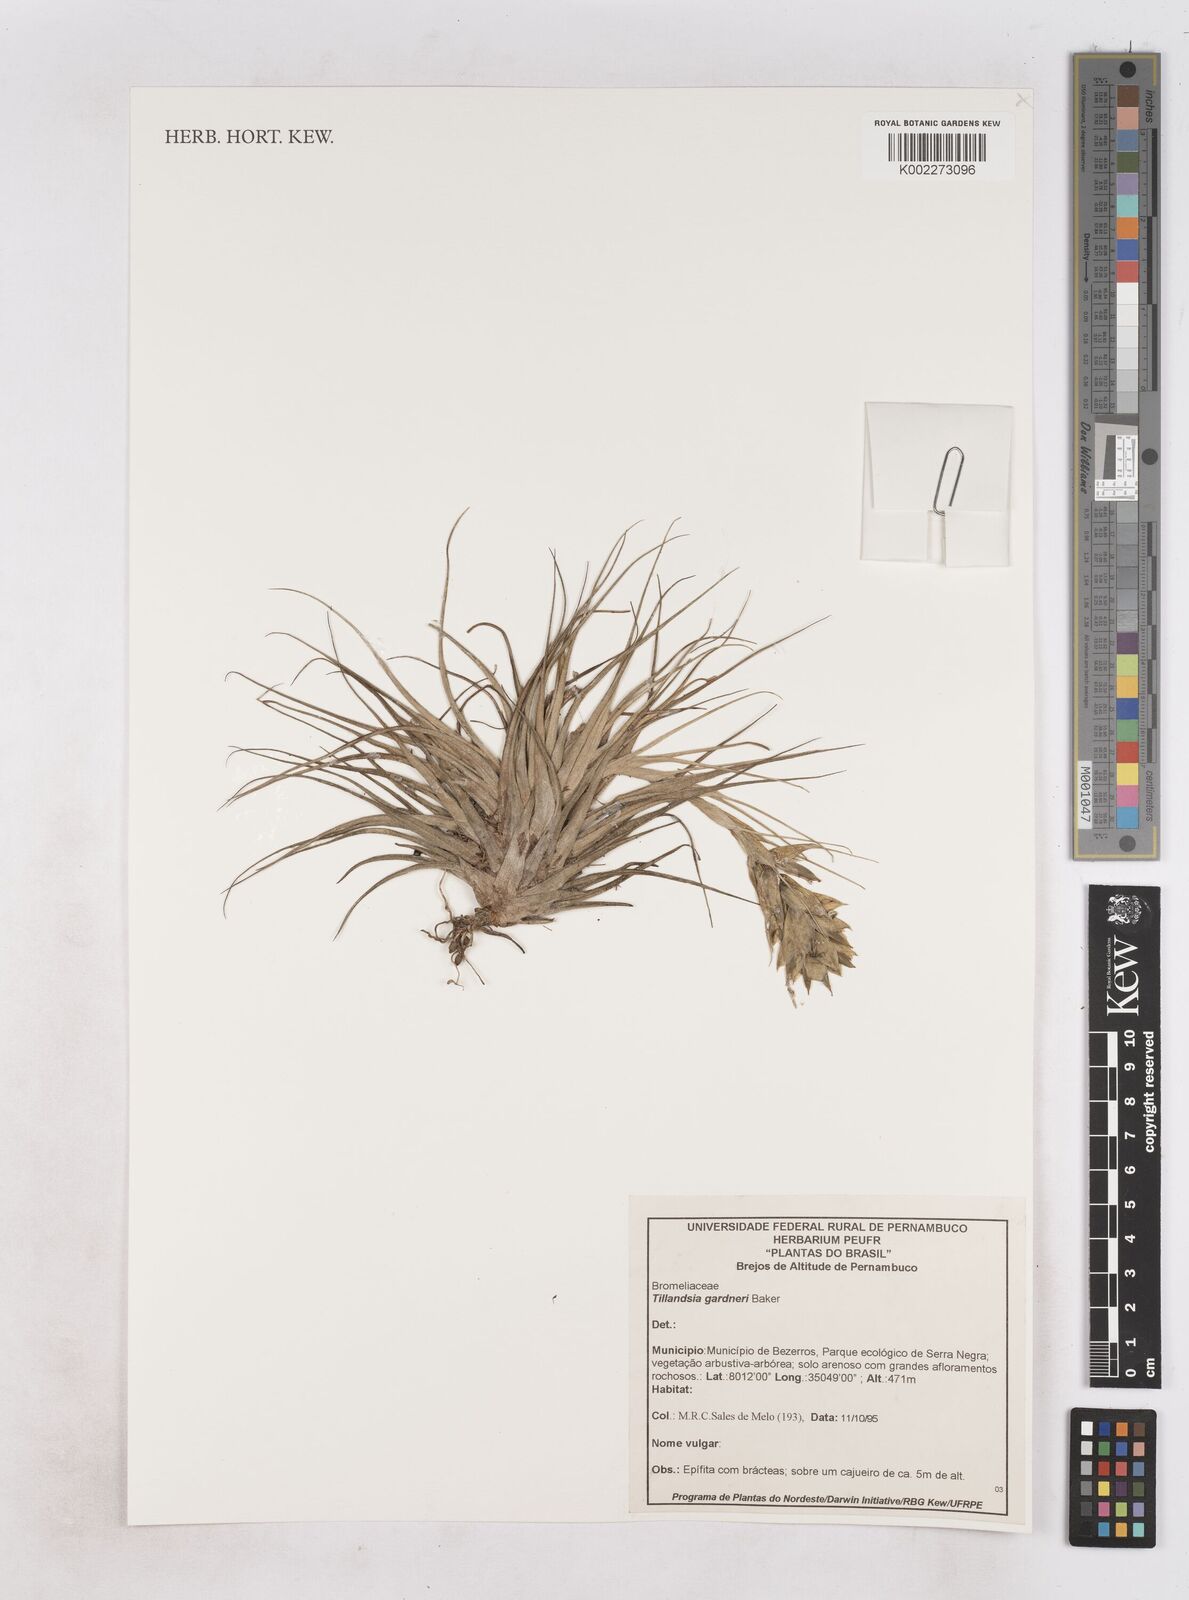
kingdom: Plantae
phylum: Tracheophyta
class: Liliopsida
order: Poales
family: Bromeliaceae
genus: Tillandsia
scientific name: Tillandsia gardneri
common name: Airplant
